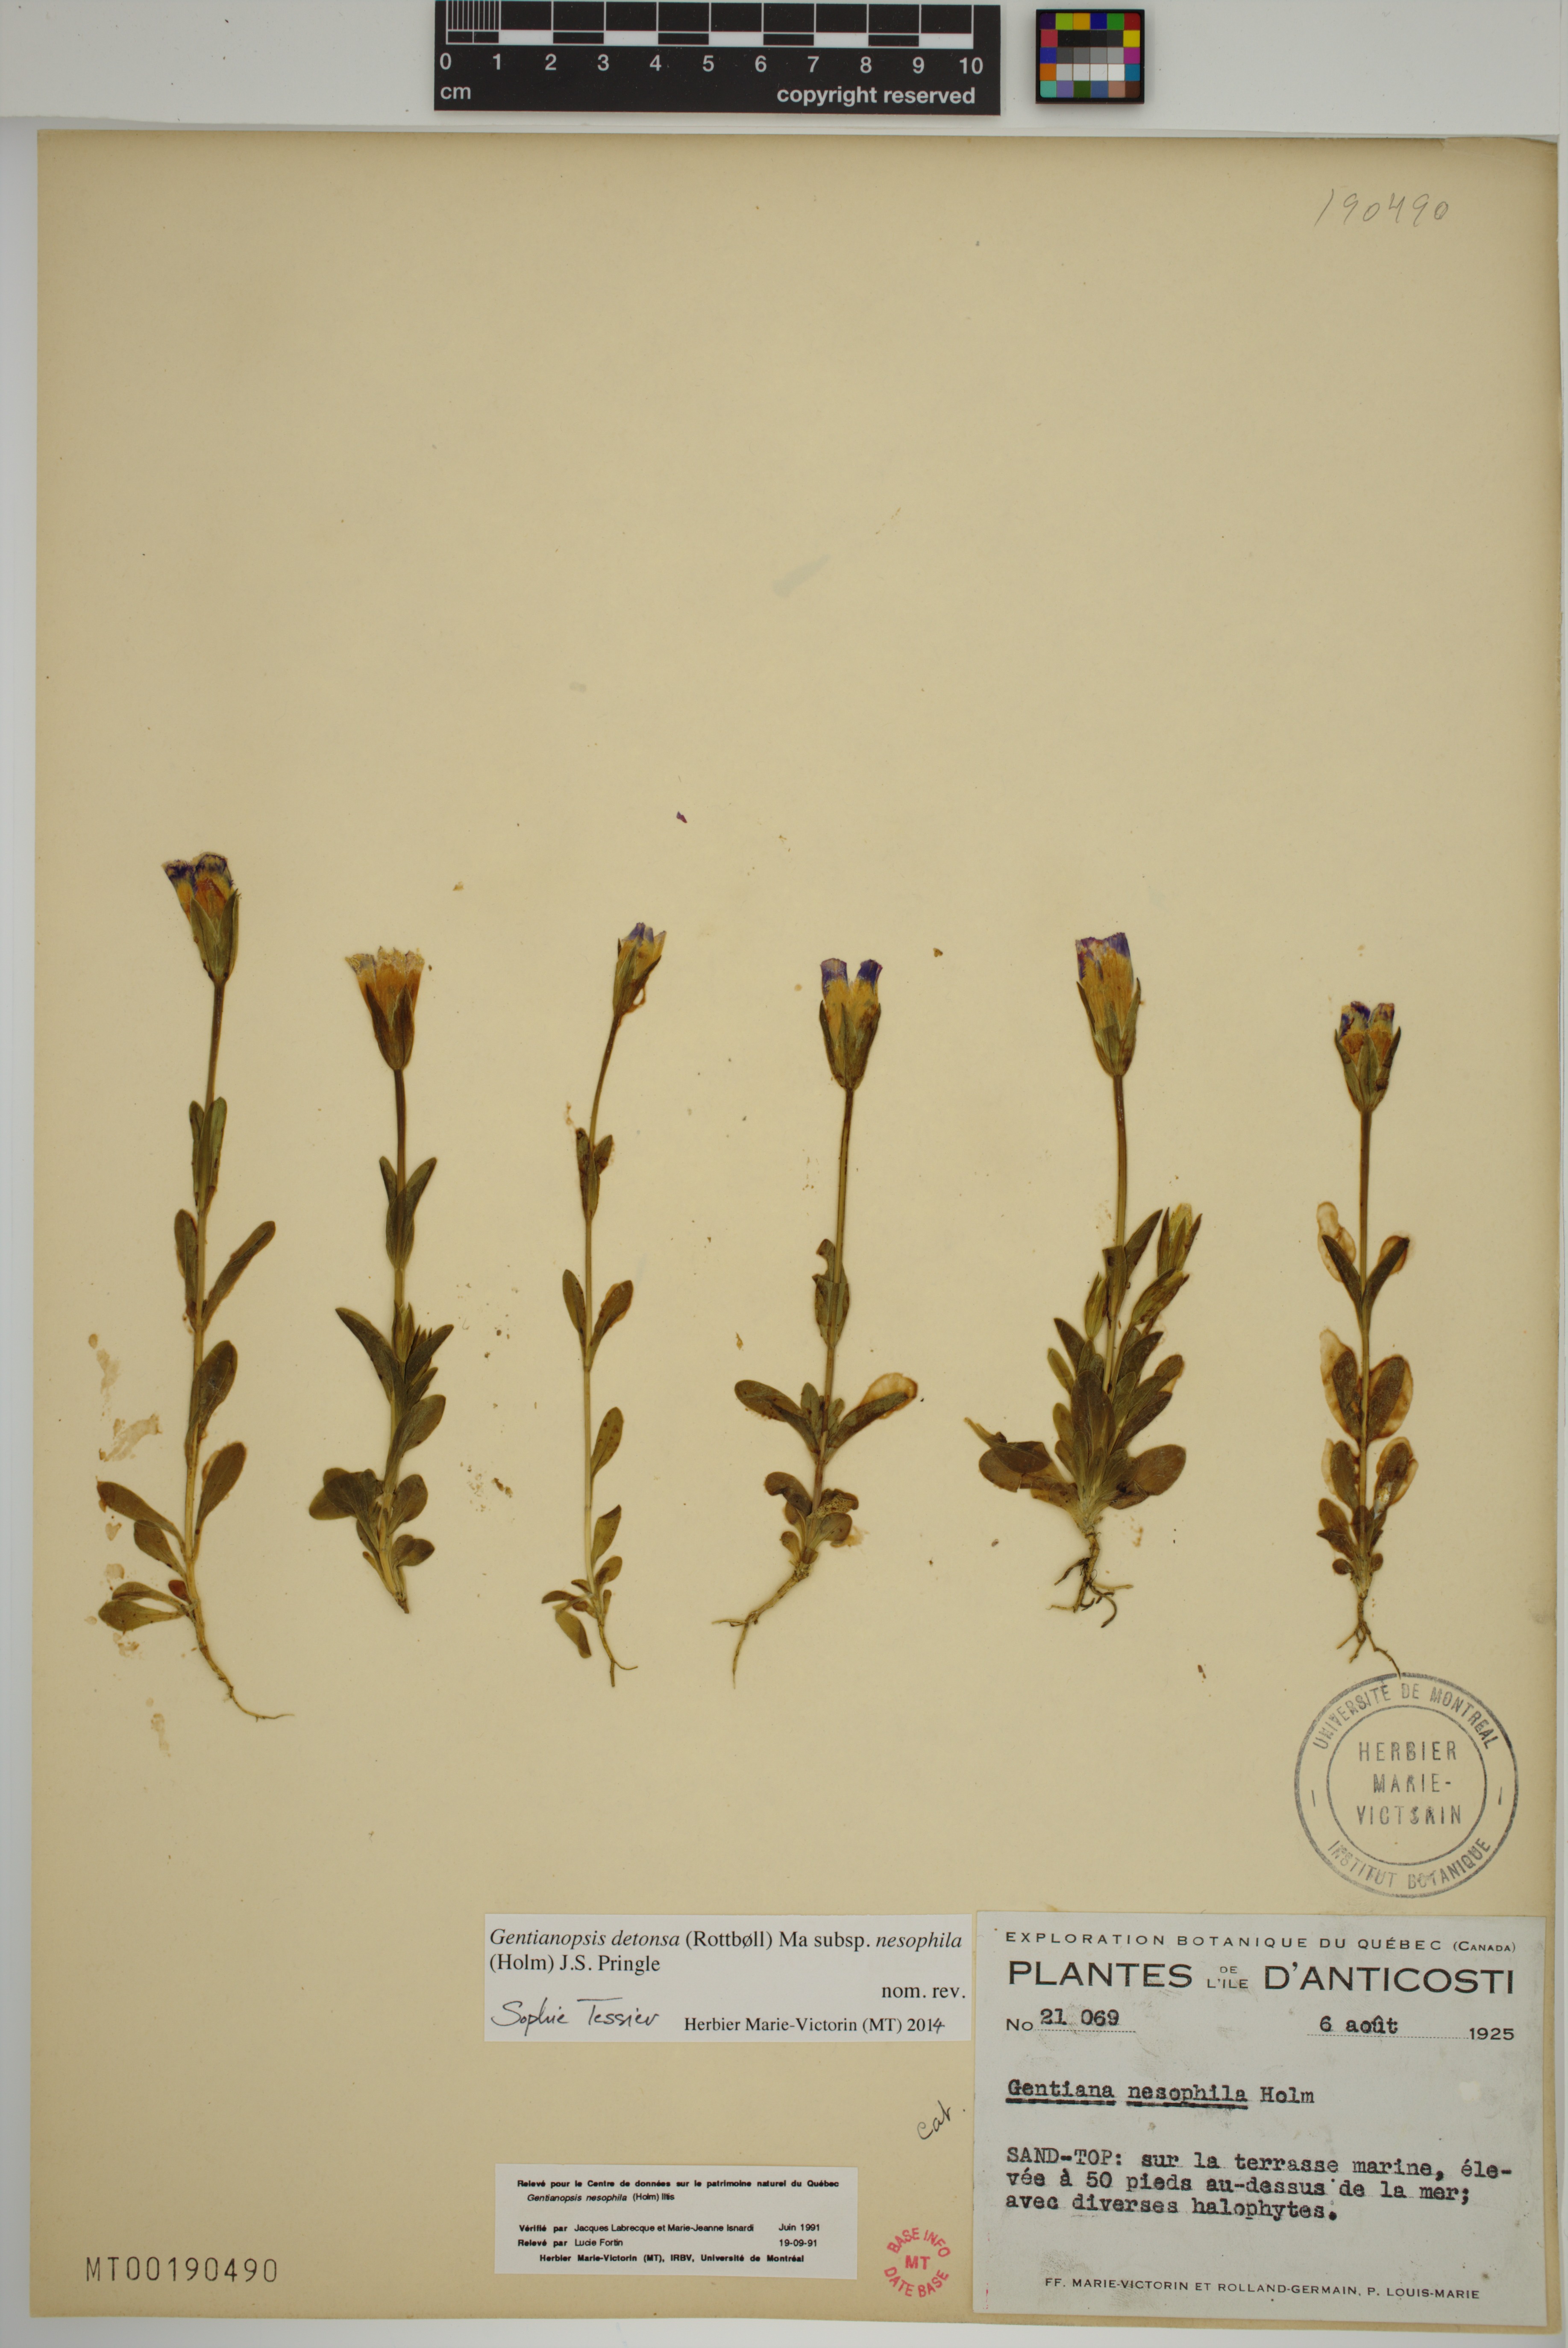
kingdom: Plantae
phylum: Tracheophyta
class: Magnoliopsida
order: Gentianales
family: Gentianaceae
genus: Gentianopsis
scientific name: Gentianopsis nesophila
